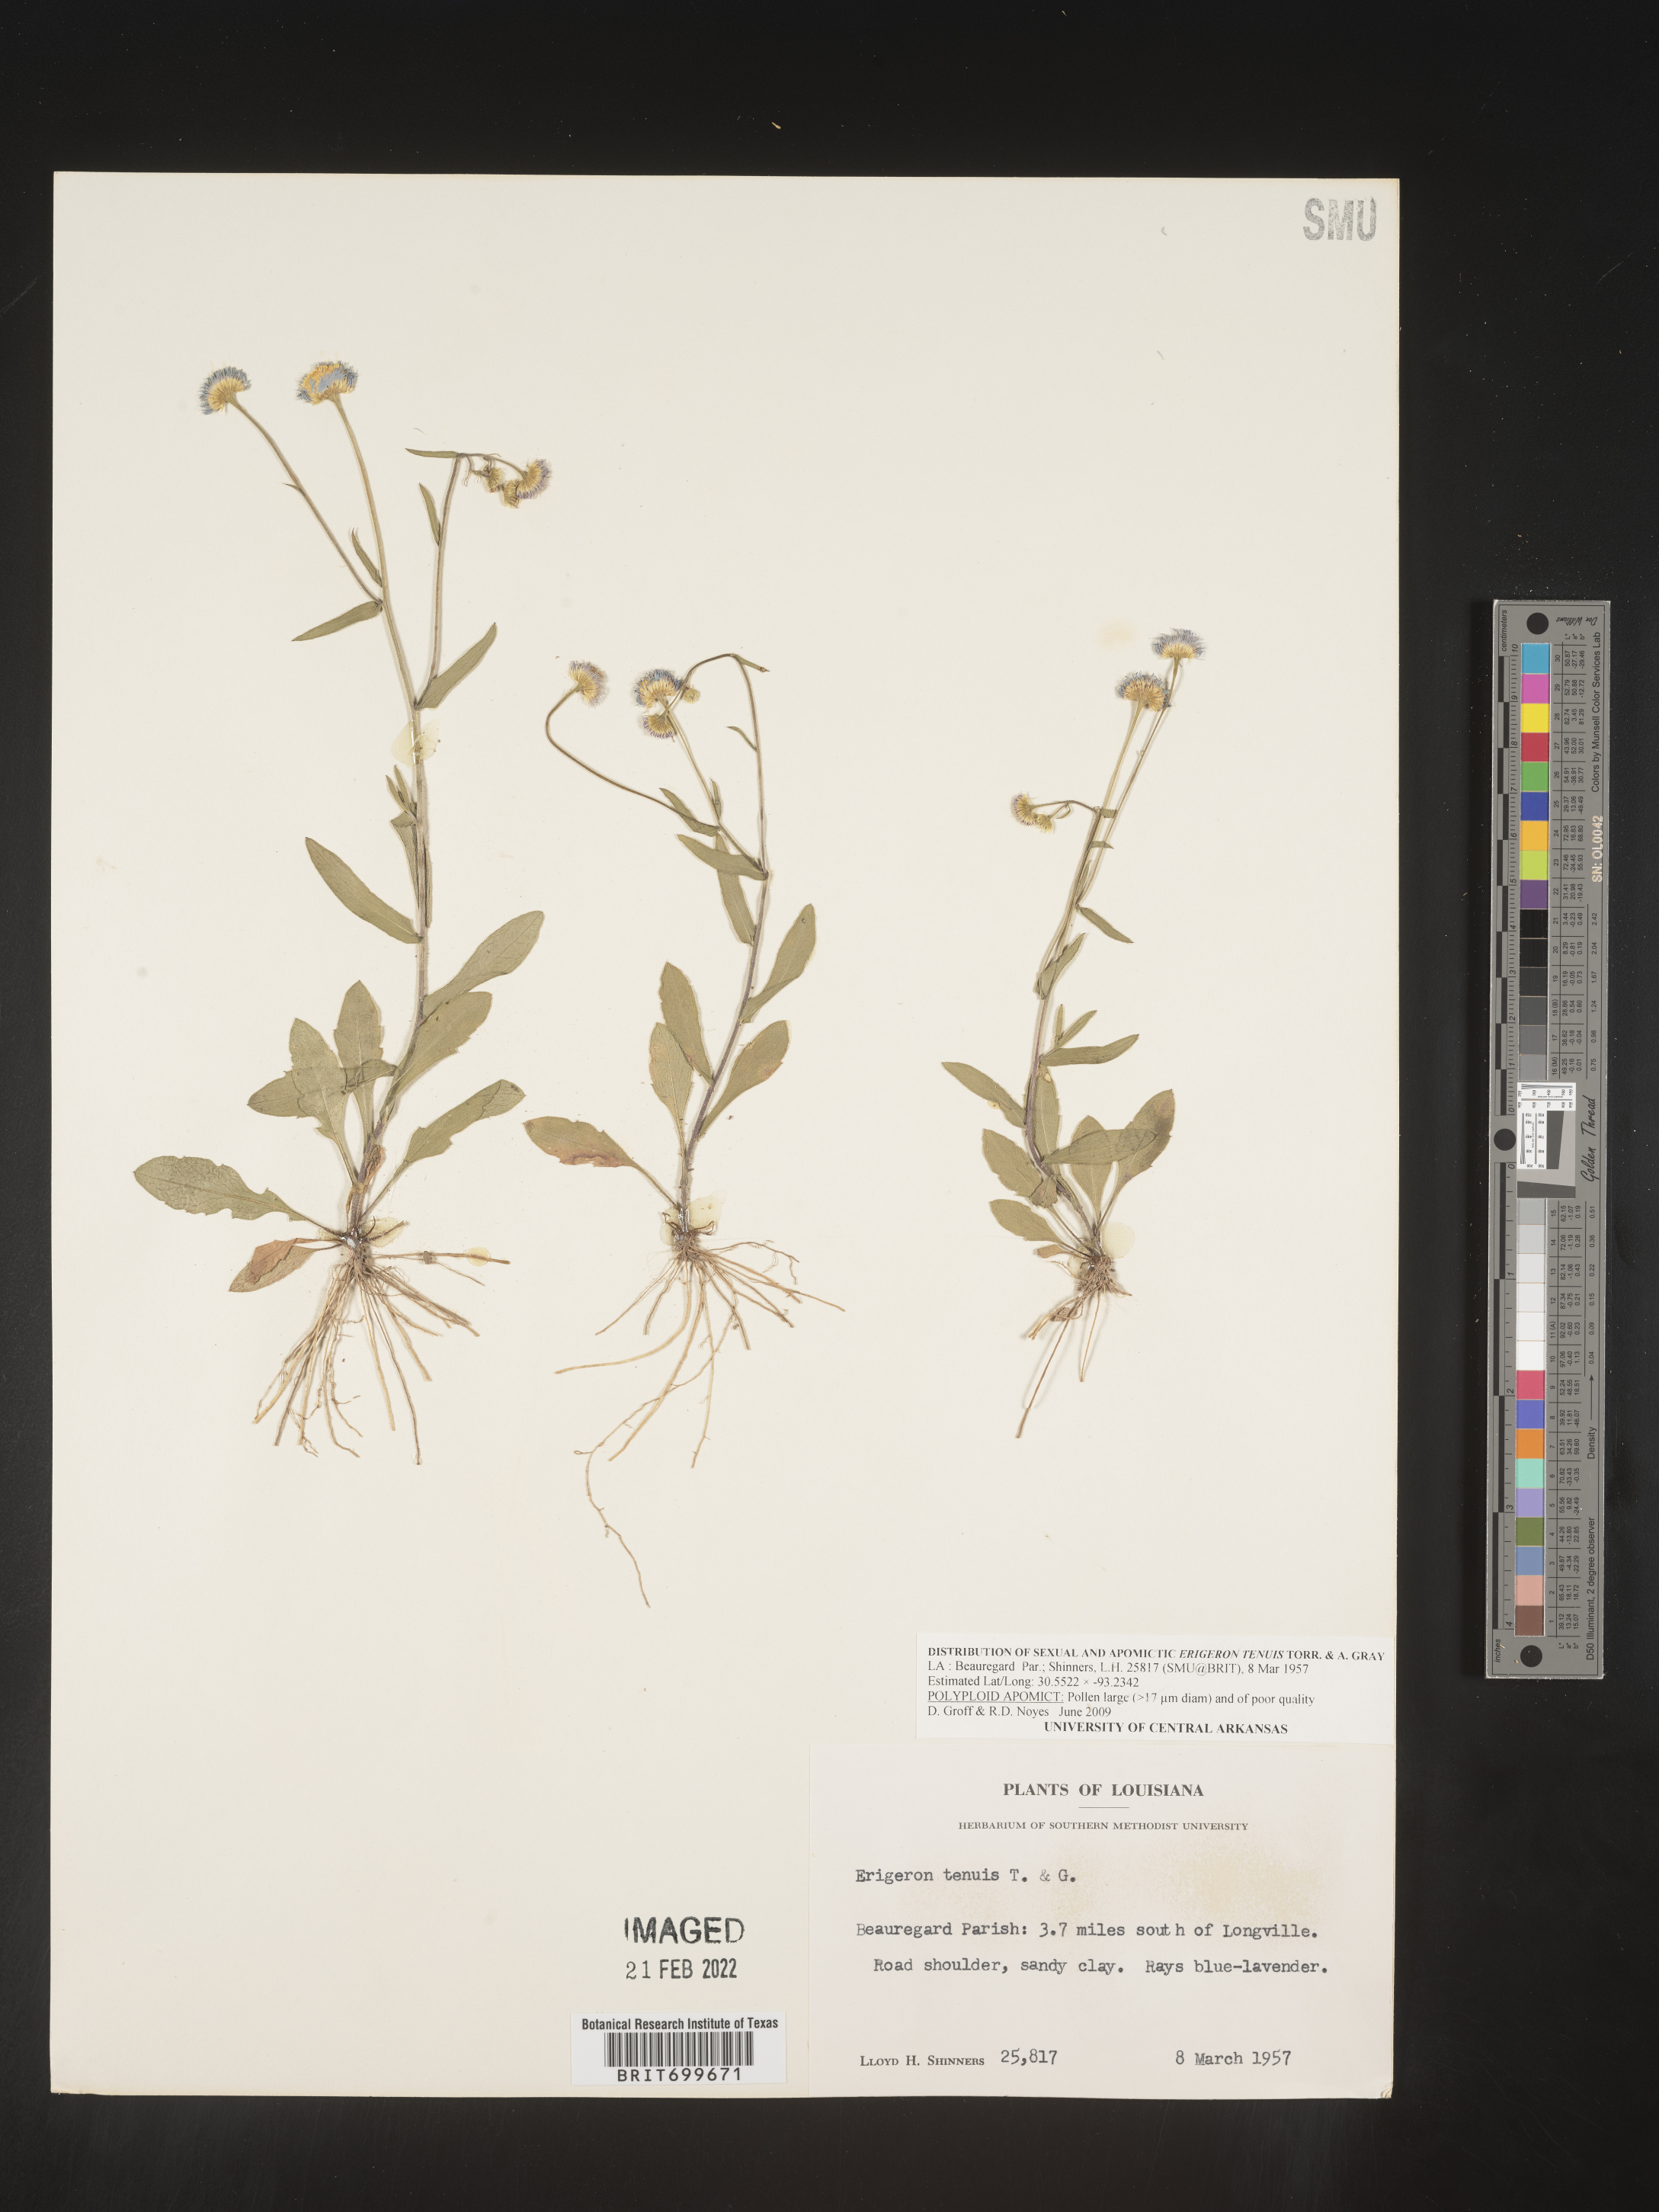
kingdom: Plantae
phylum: Tracheophyta
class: Magnoliopsida
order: Asterales
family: Asteraceae
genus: Erigeron
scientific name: Erigeron tenuis
